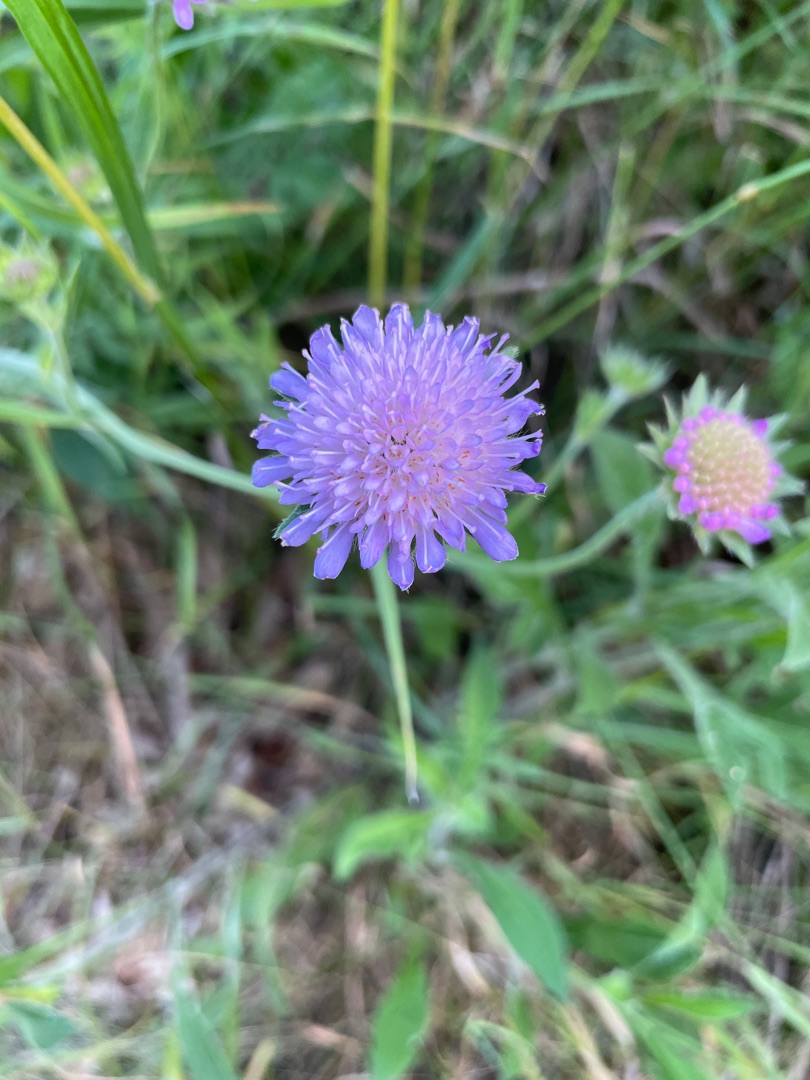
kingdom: Plantae
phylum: Tracheophyta
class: Magnoliopsida
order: Dipsacales
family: Caprifoliaceae
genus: Knautia
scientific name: Knautia arvensis
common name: Blåhat
